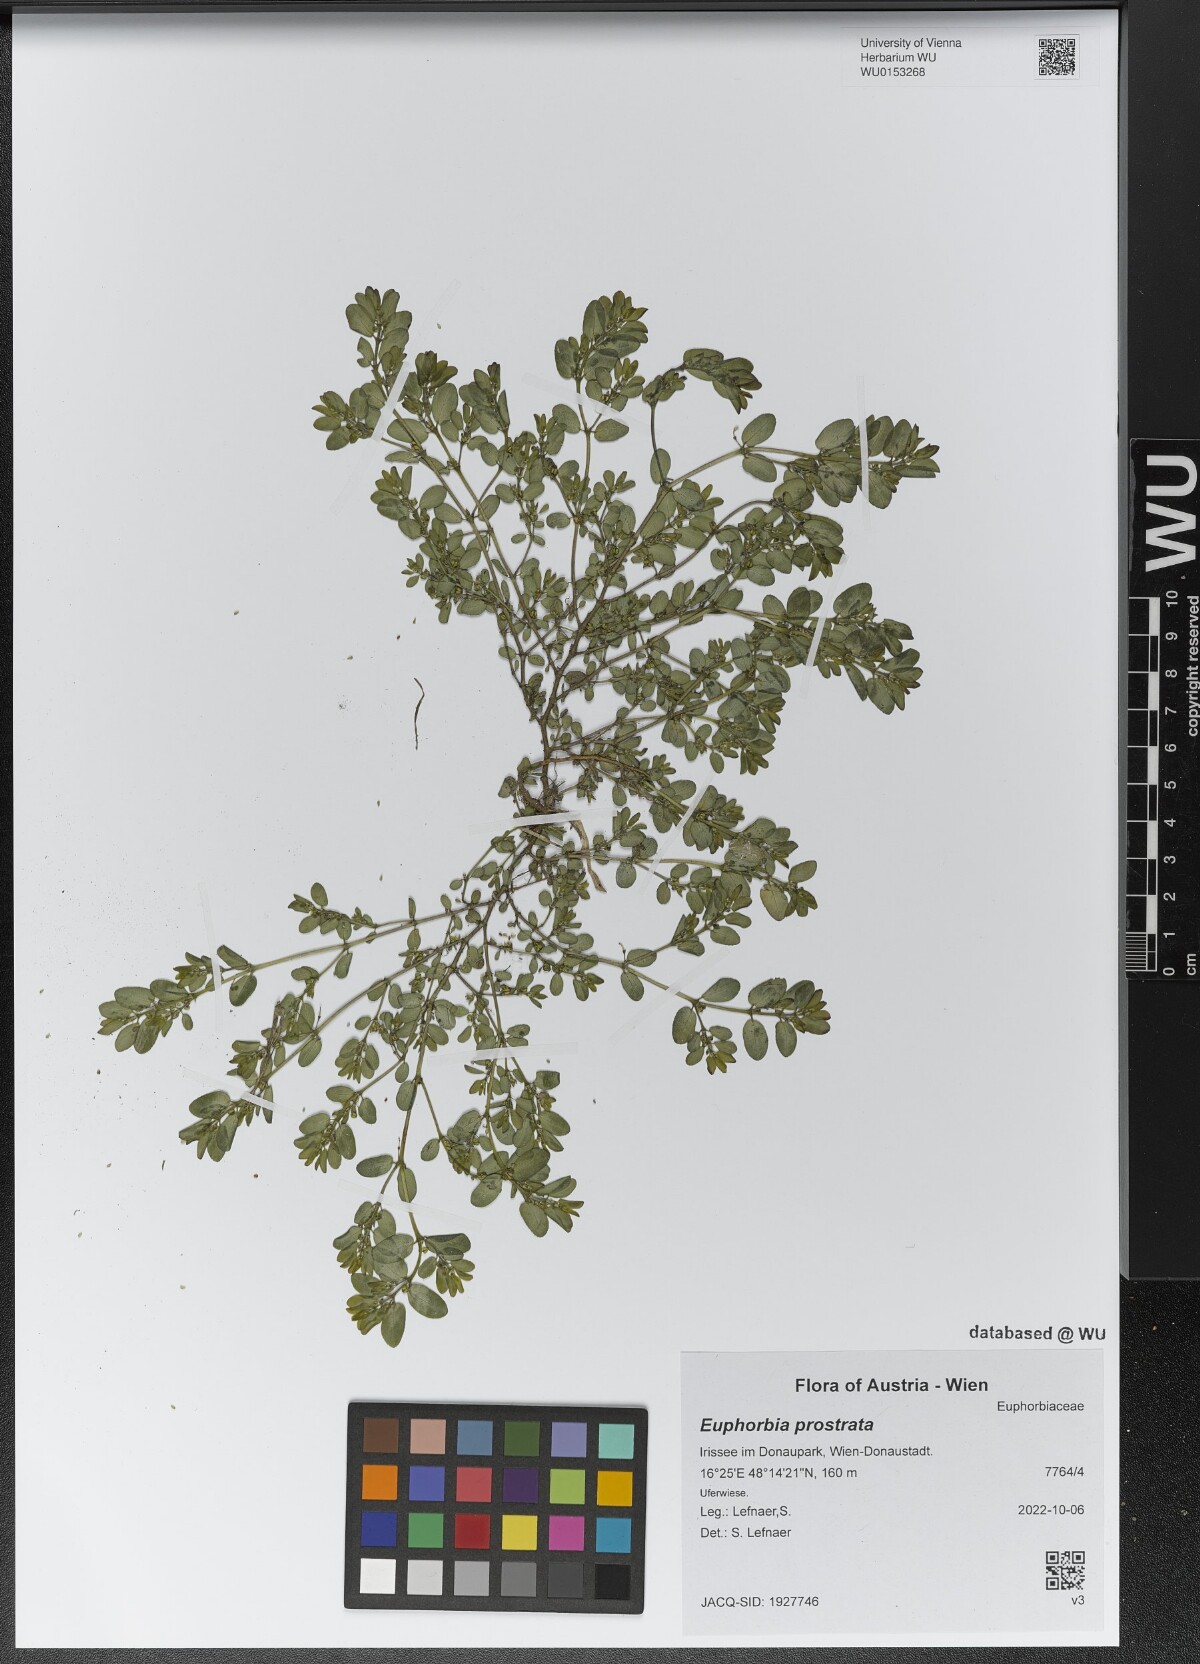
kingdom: Plantae
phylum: Tracheophyta
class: Magnoliopsida
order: Malpighiales
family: Euphorbiaceae
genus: Euphorbia
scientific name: Euphorbia prostrata
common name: Prostrate sandmat
